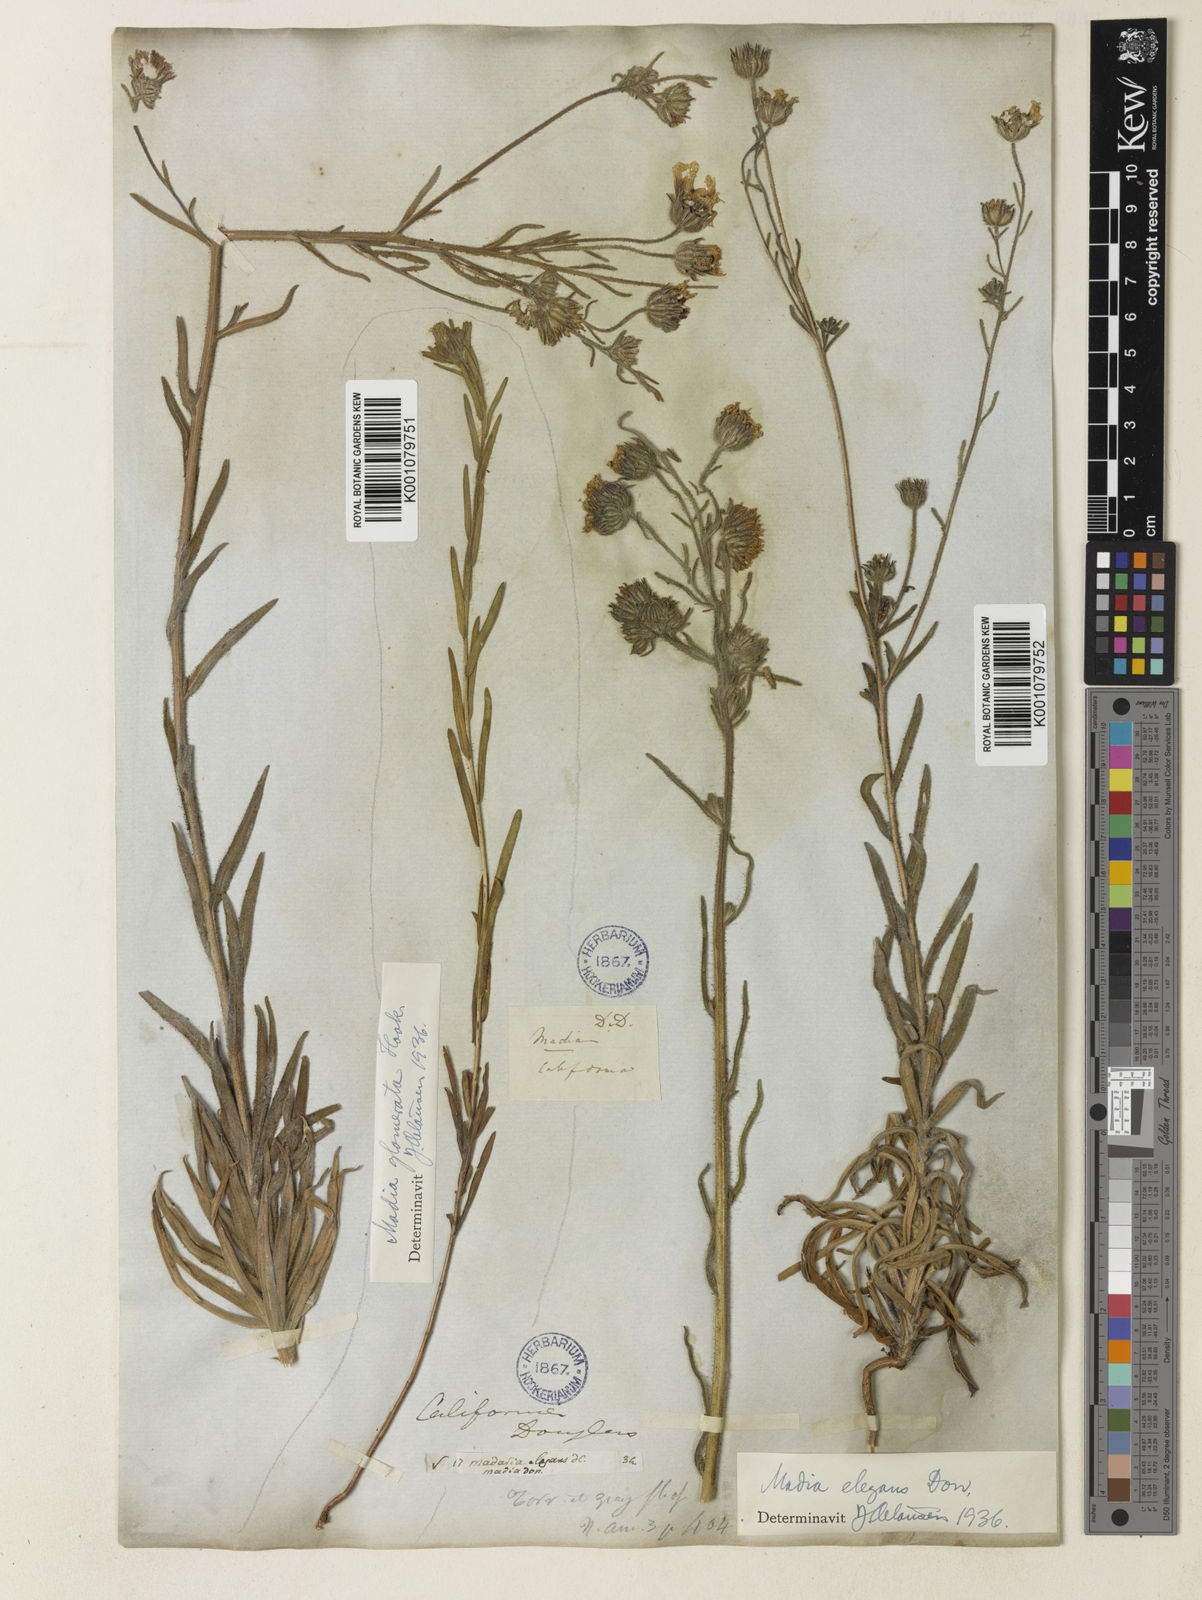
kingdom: Plantae
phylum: Tracheophyta
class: Magnoliopsida
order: Asterales
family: Asteraceae
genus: Madia
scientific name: Madia elegans
